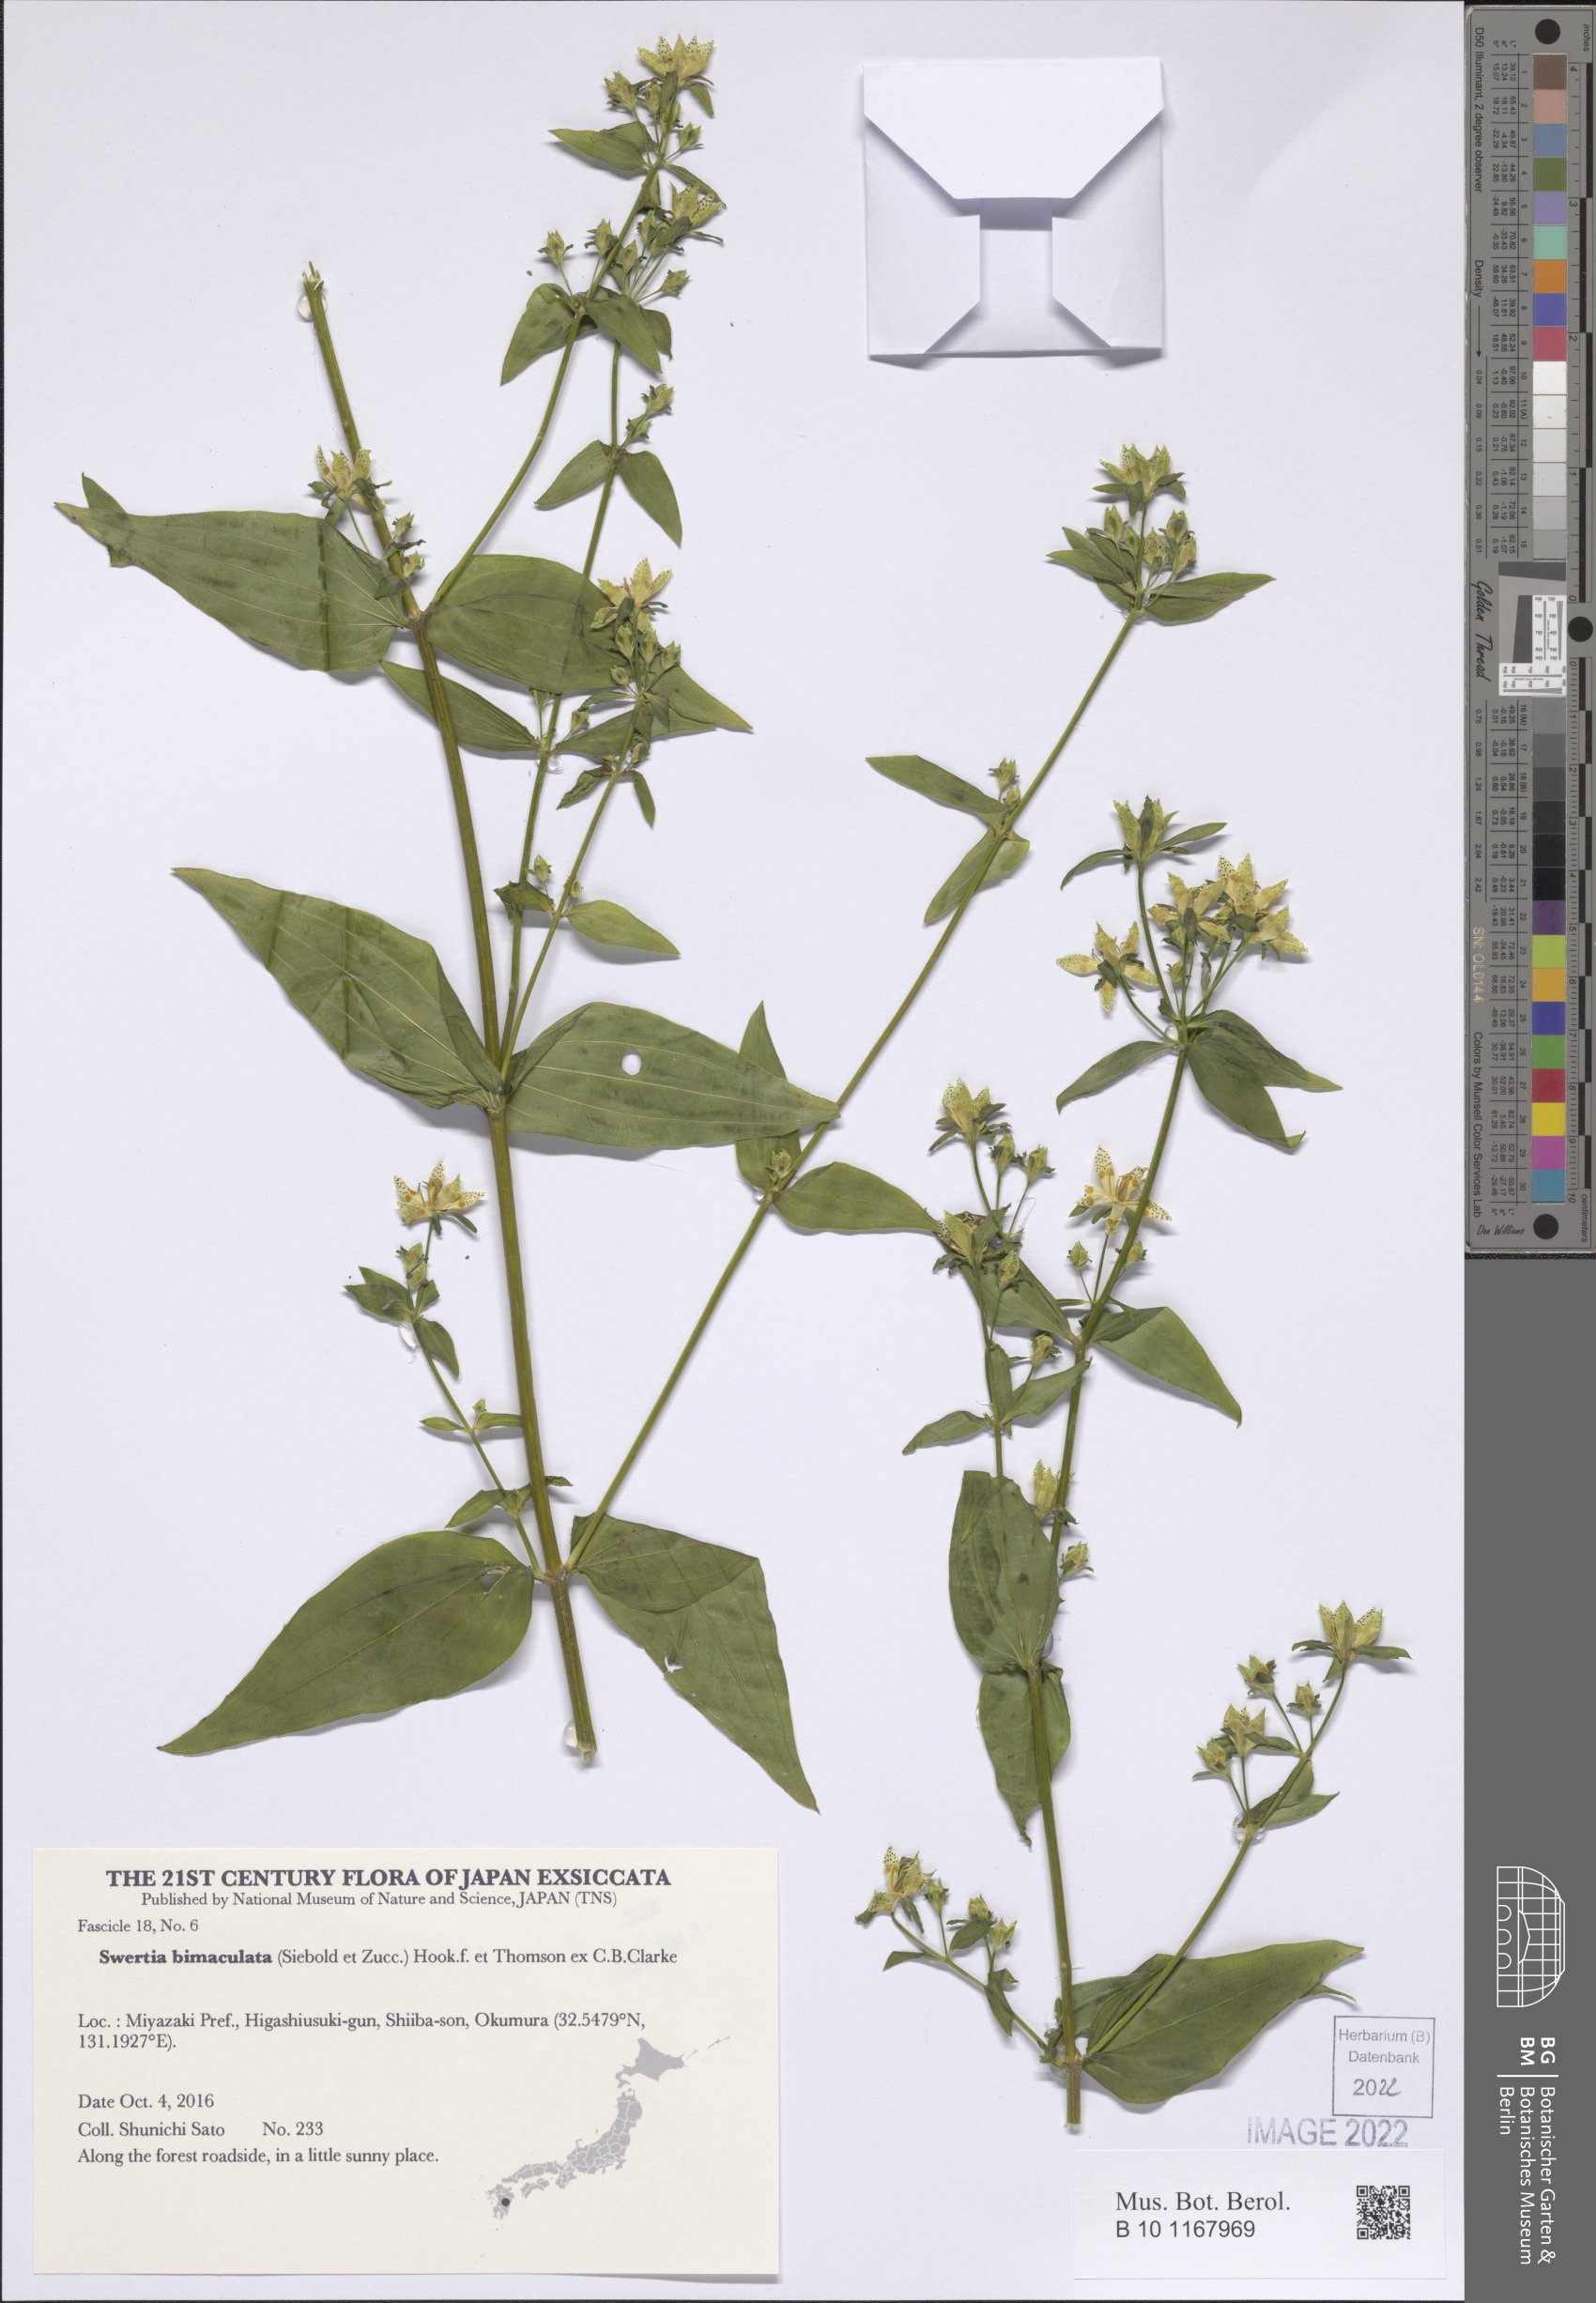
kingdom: Plantae
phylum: Tracheophyta
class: Magnoliopsida
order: Gentianales
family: Gentianaceae
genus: Swertia
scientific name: Swertia bimaculata
